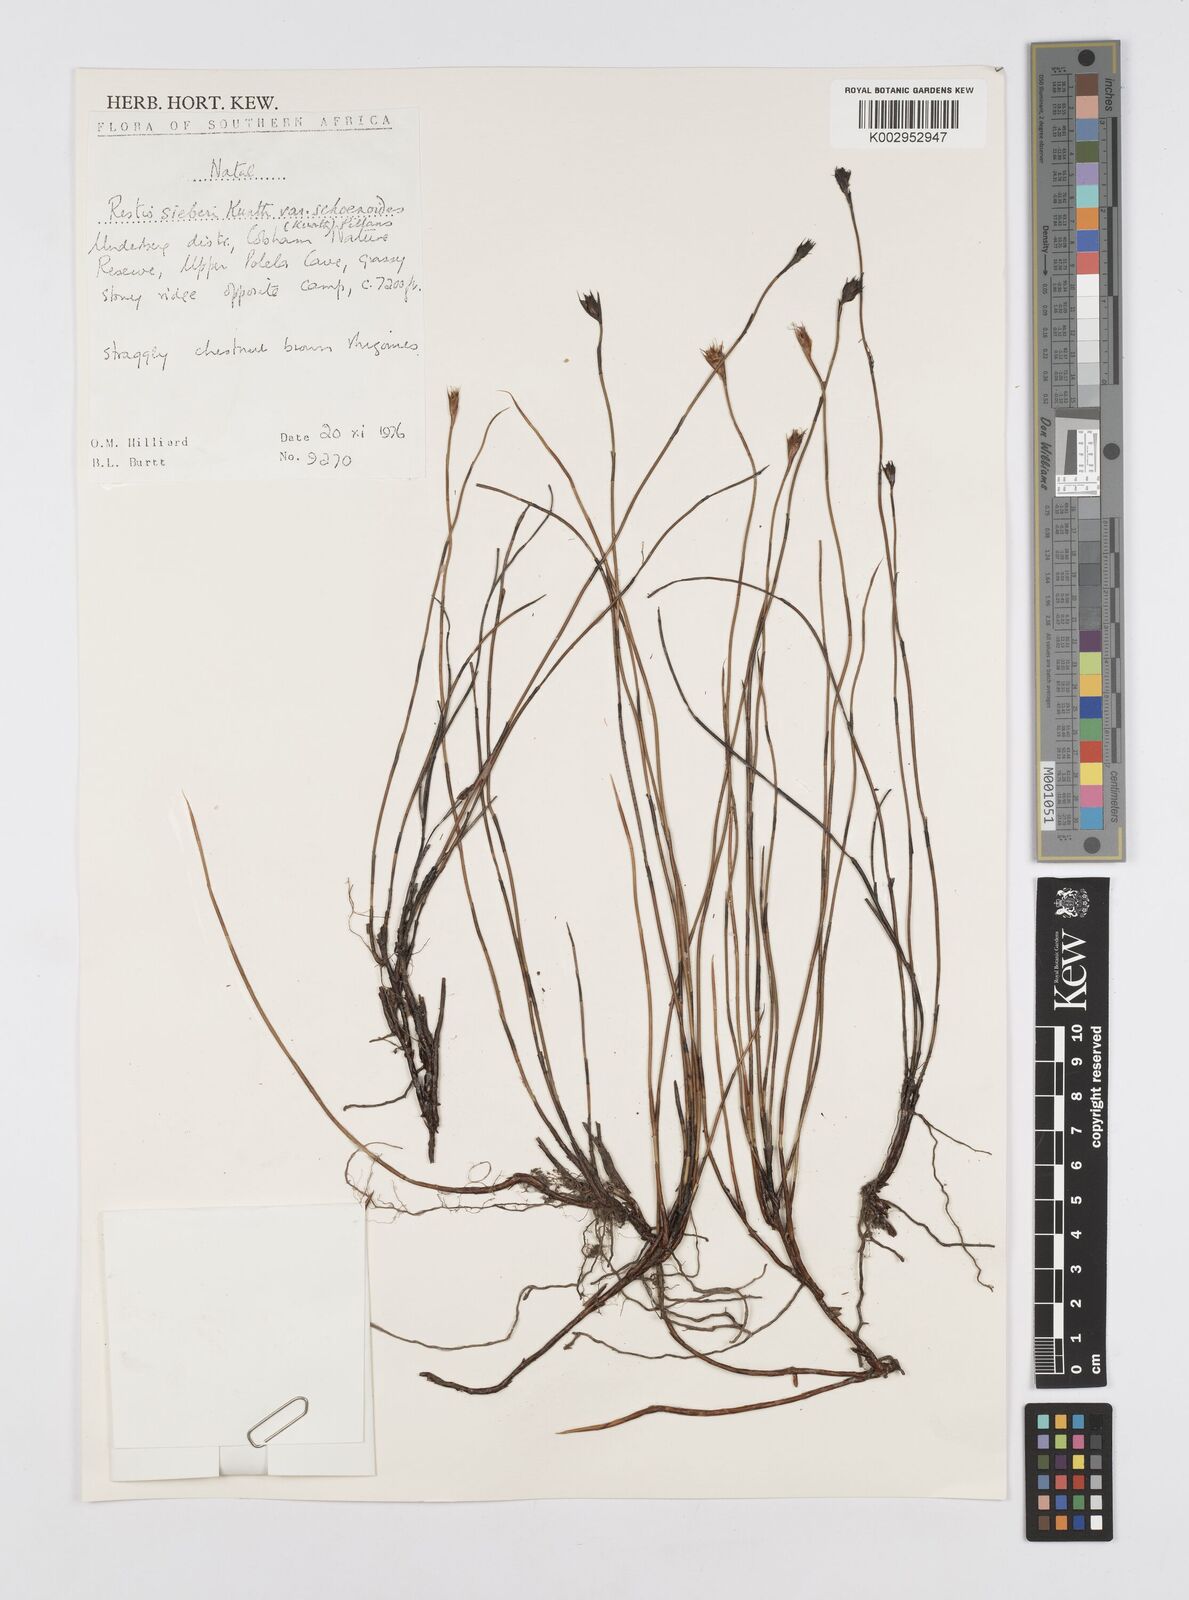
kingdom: Plantae
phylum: Tracheophyta
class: Liliopsida
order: Poales
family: Restionaceae
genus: Restio
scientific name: Restio schoenoides
